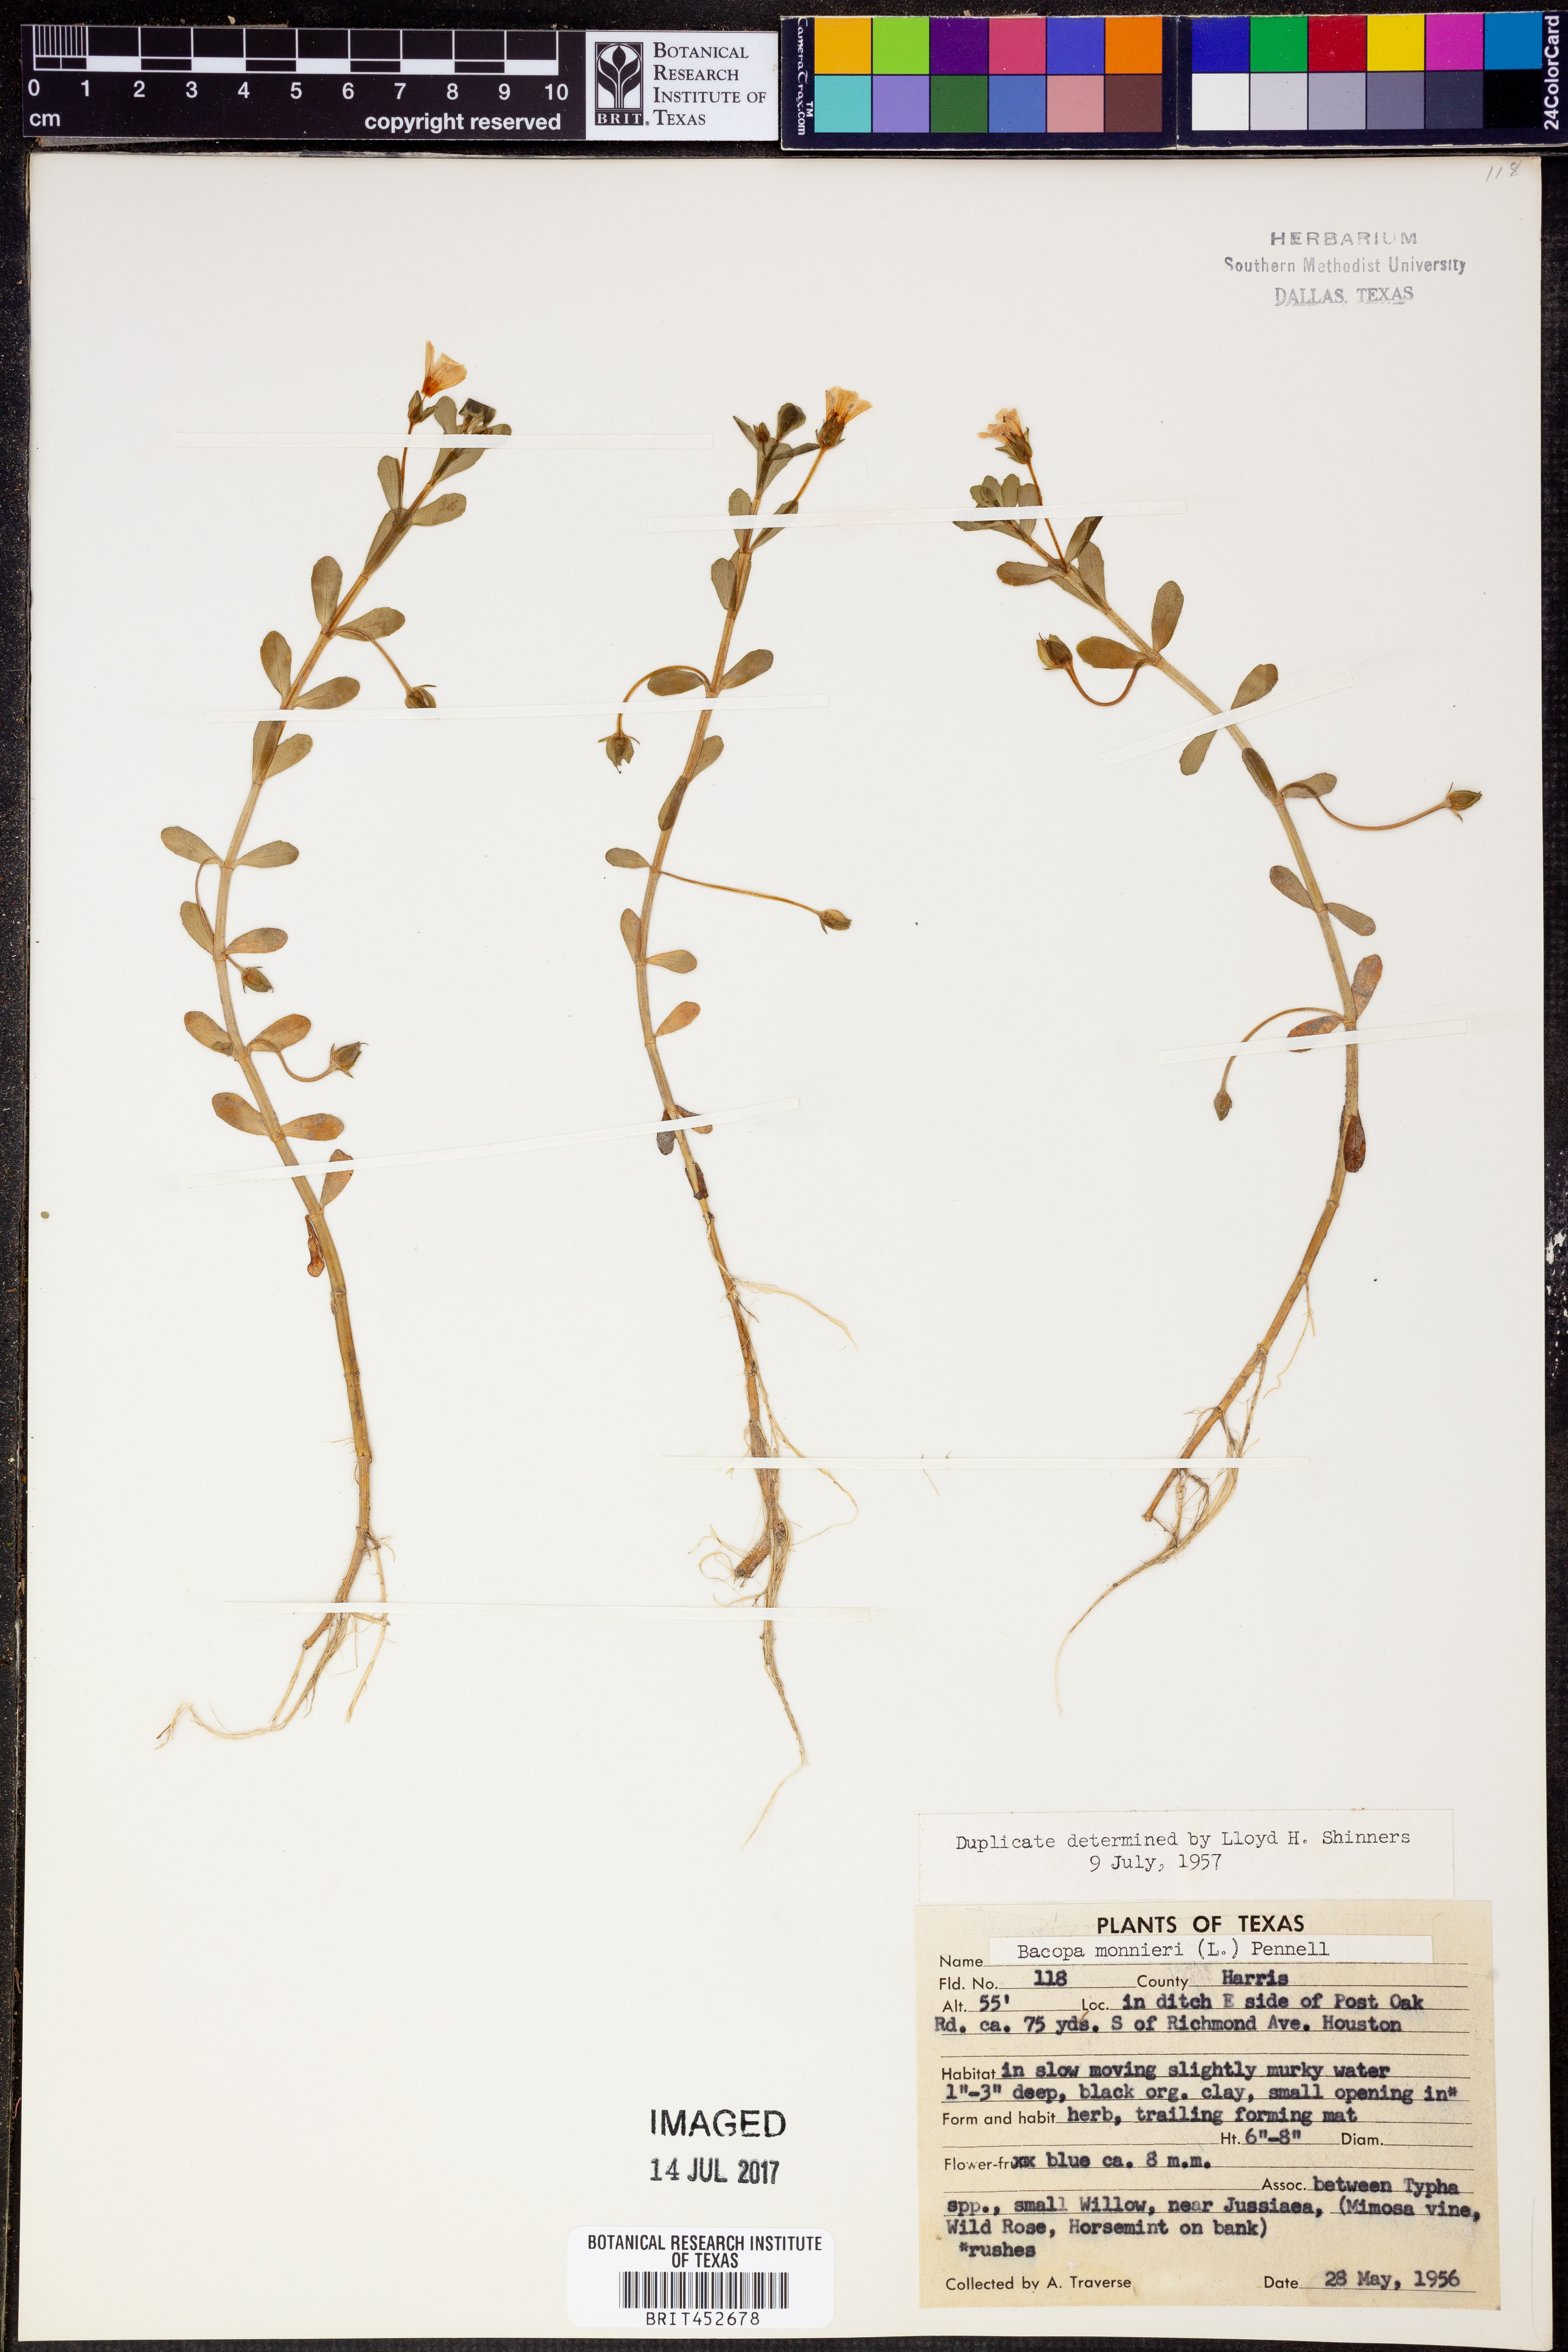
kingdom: Plantae
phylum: Tracheophyta
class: Magnoliopsida
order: Lamiales
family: Plantaginaceae
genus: Bacopa
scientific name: Bacopa monnieri
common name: Indian-pennywort
